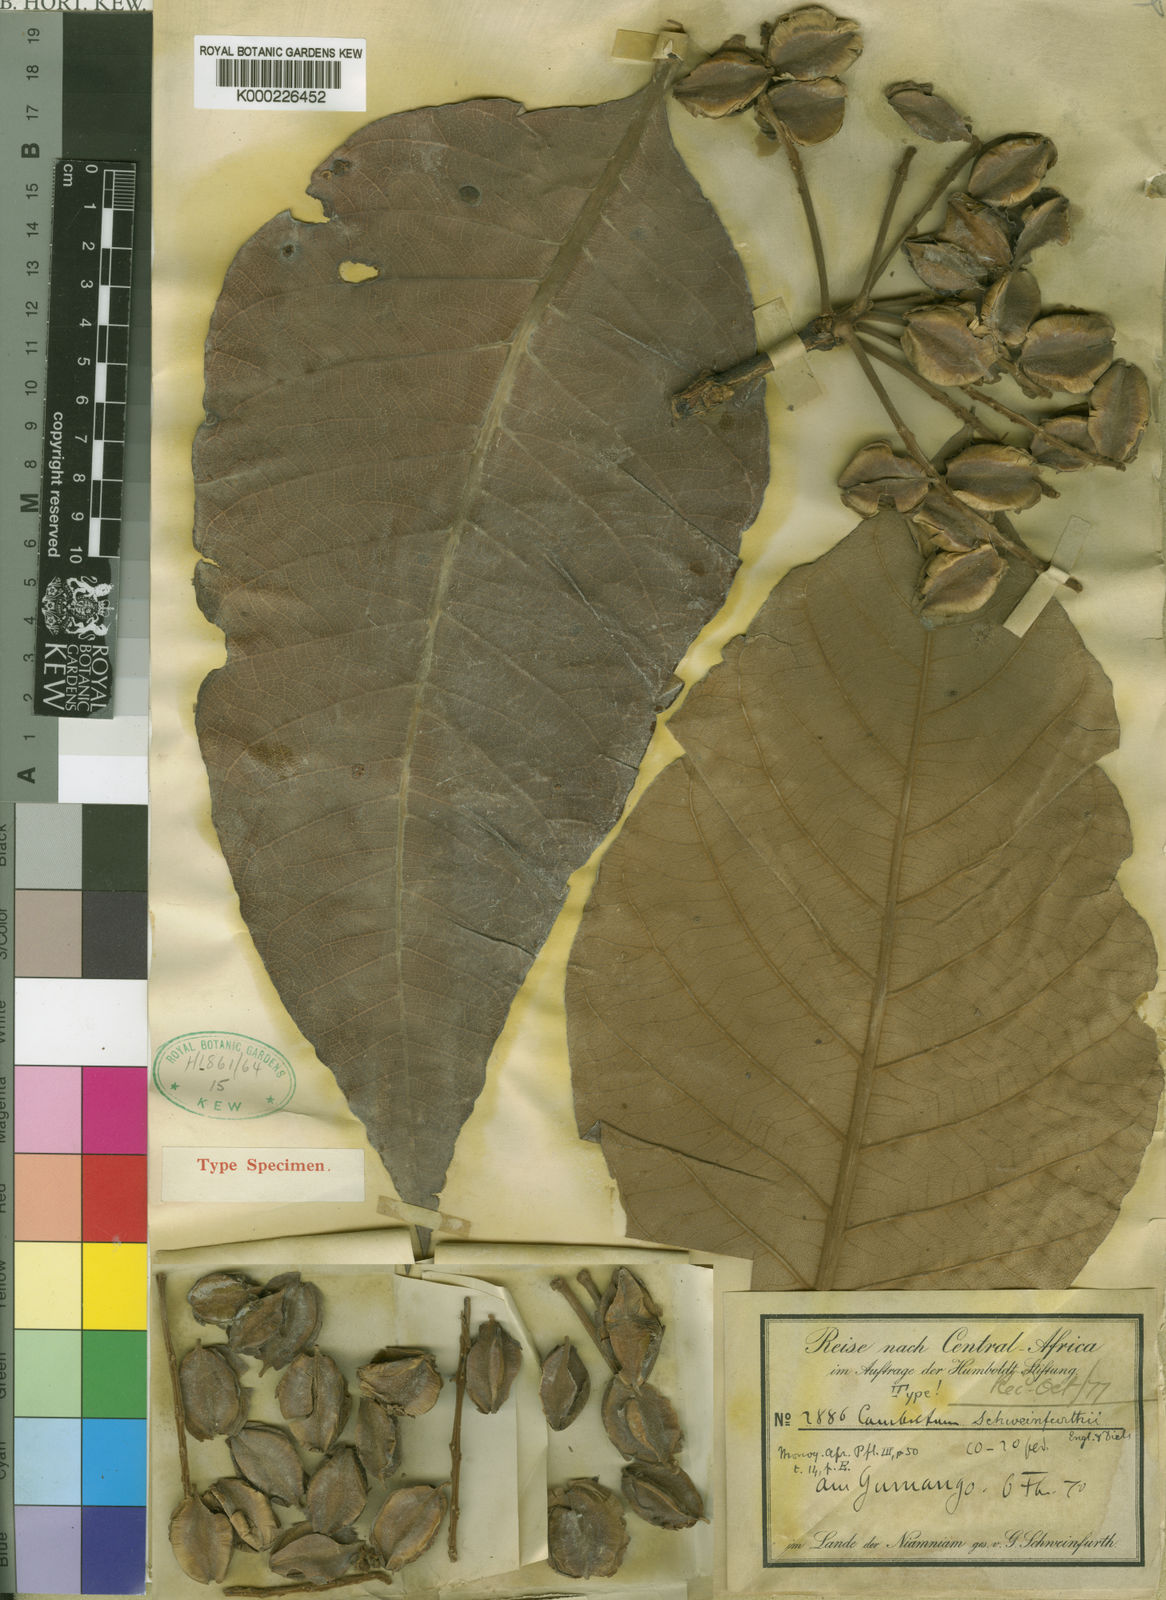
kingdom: Plantae
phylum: Tracheophyta
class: Magnoliopsida
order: Myrtales
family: Combretaceae
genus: Combretum
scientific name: Combretum schweinfurthii
